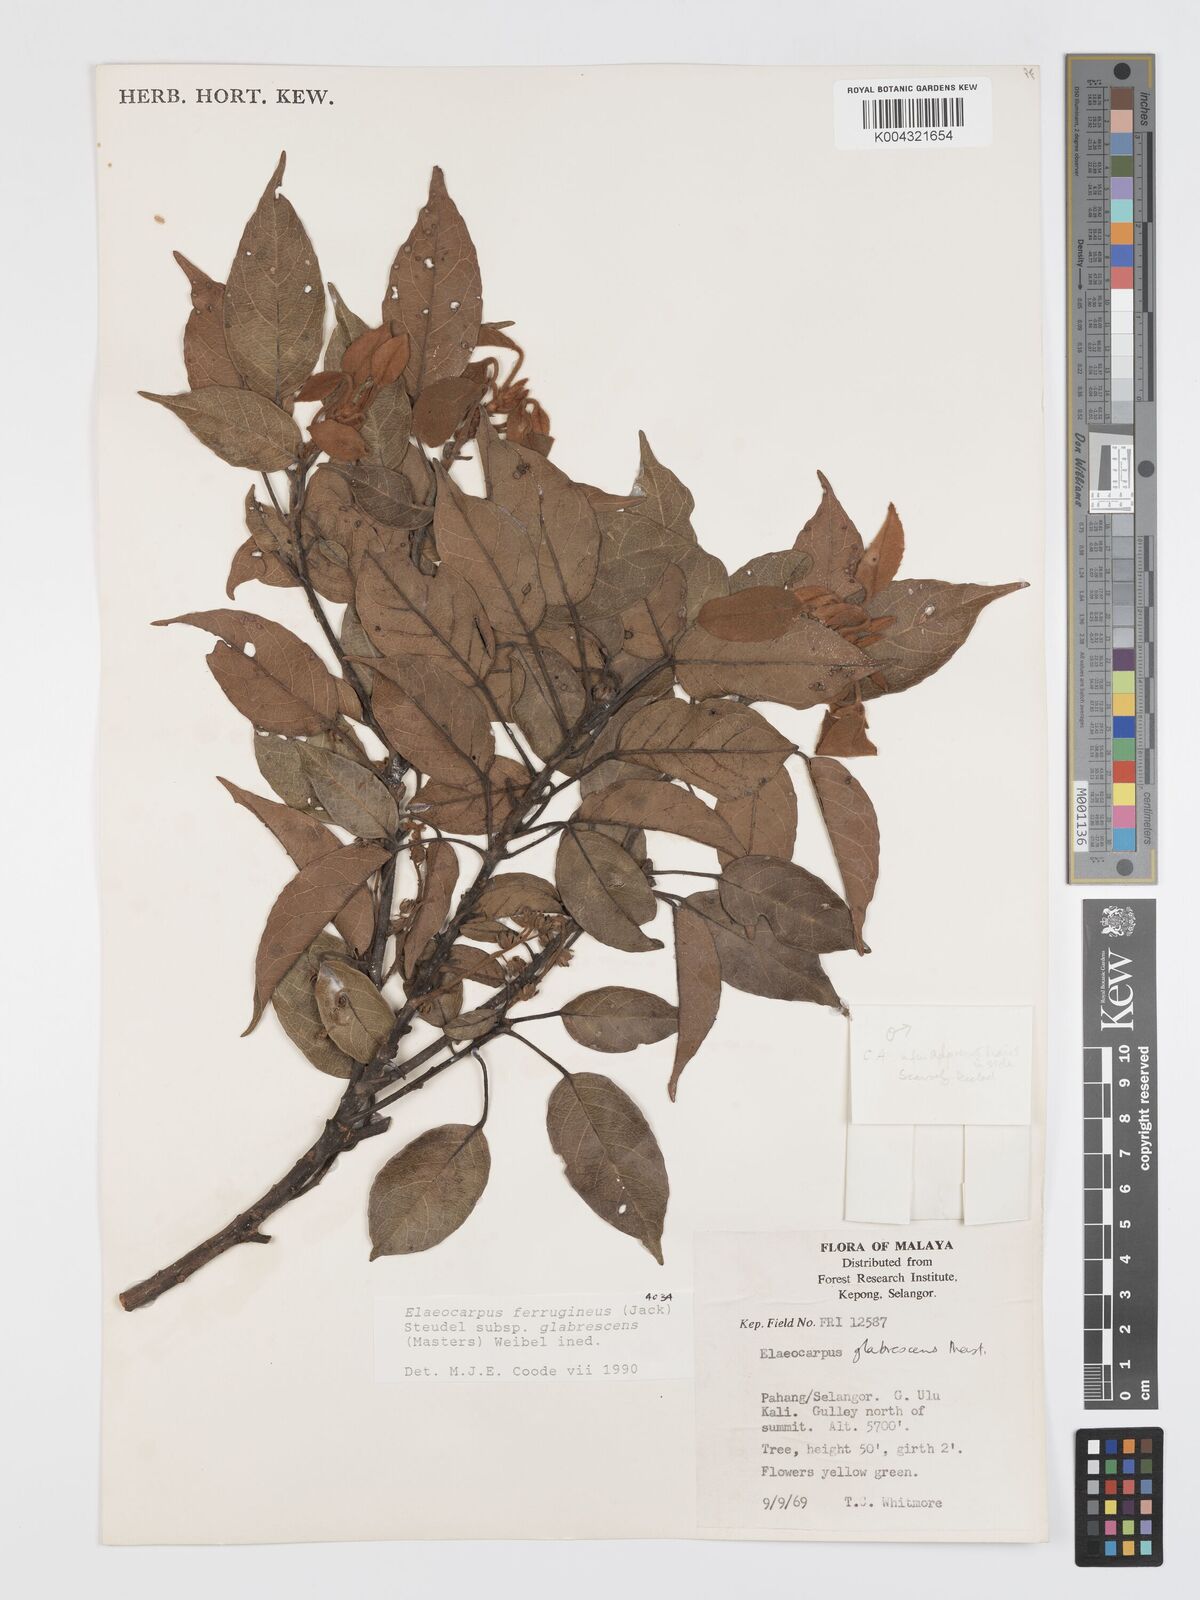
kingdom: Plantae
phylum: Tracheophyta
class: Magnoliopsida
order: Oxalidales
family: Elaeocarpaceae
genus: Elaeocarpus
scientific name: Elaeocarpus ferrugineus
